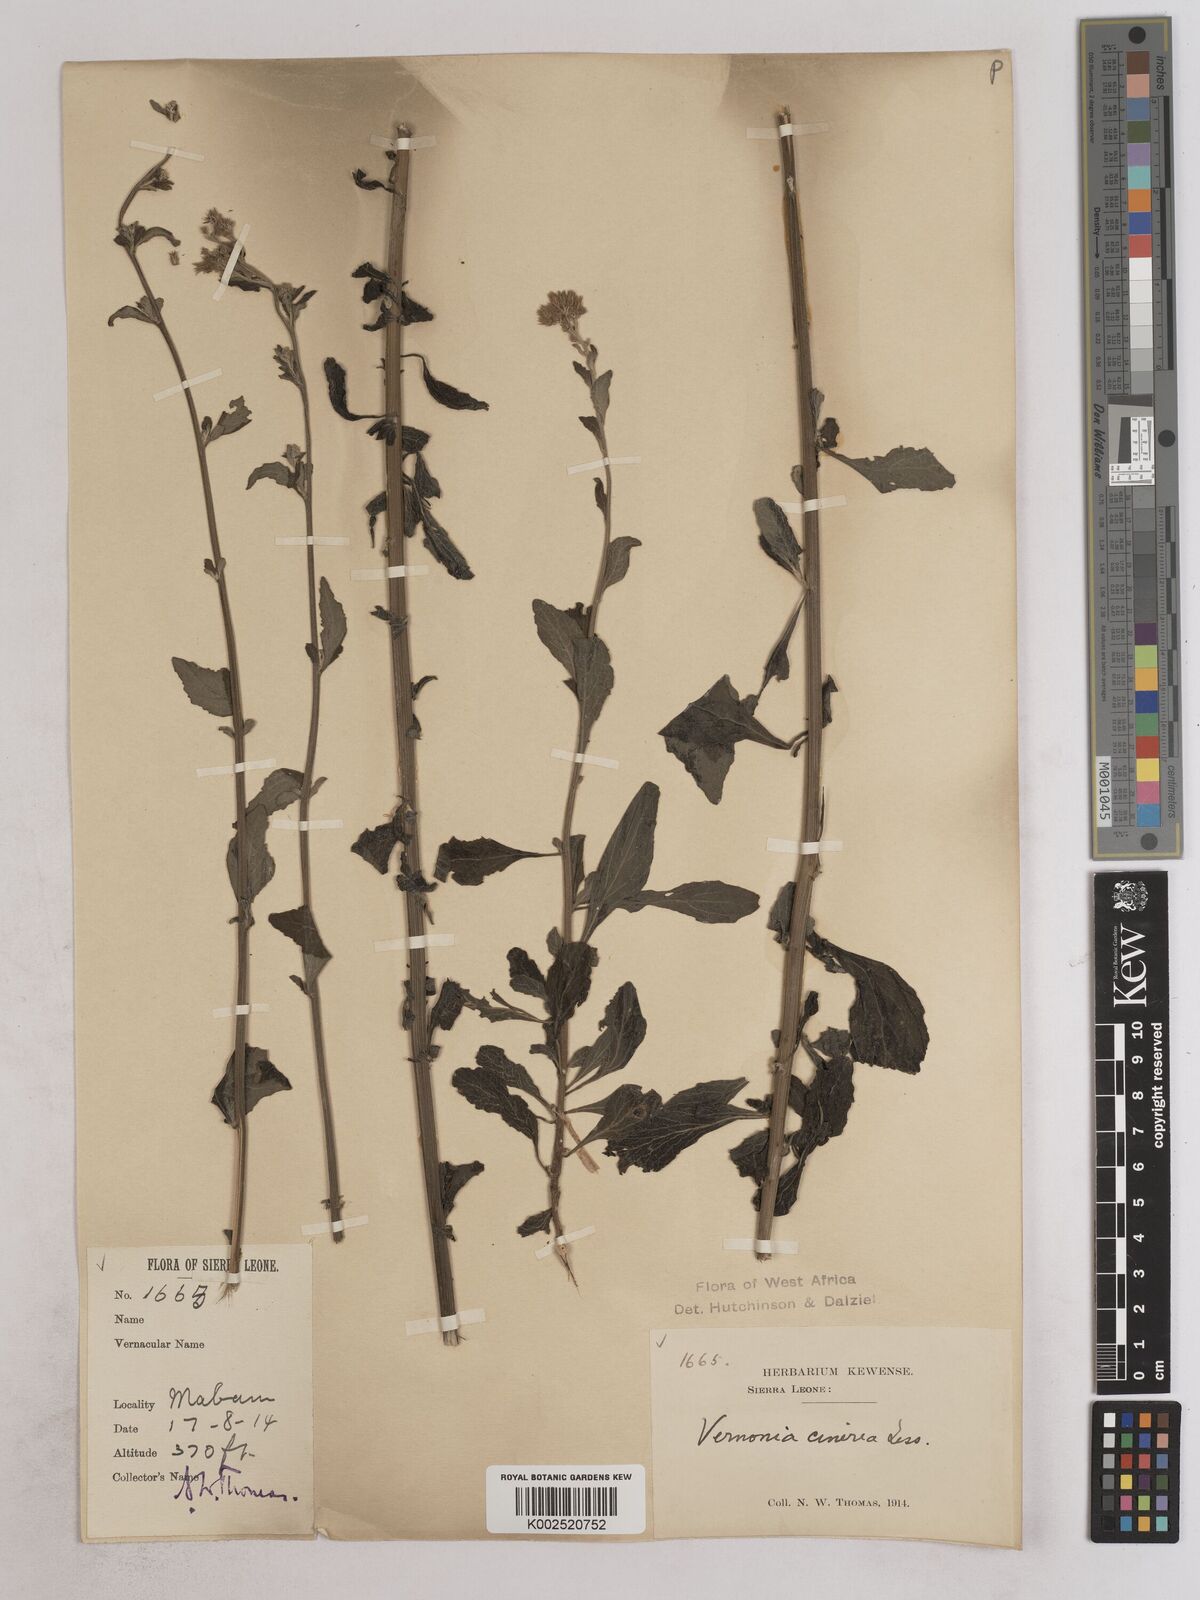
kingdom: Plantae
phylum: Tracheophyta
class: Magnoliopsida
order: Asterales
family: Asteraceae
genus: Cyanthillium
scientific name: Cyanthillium cinereum
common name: Little ironweed
